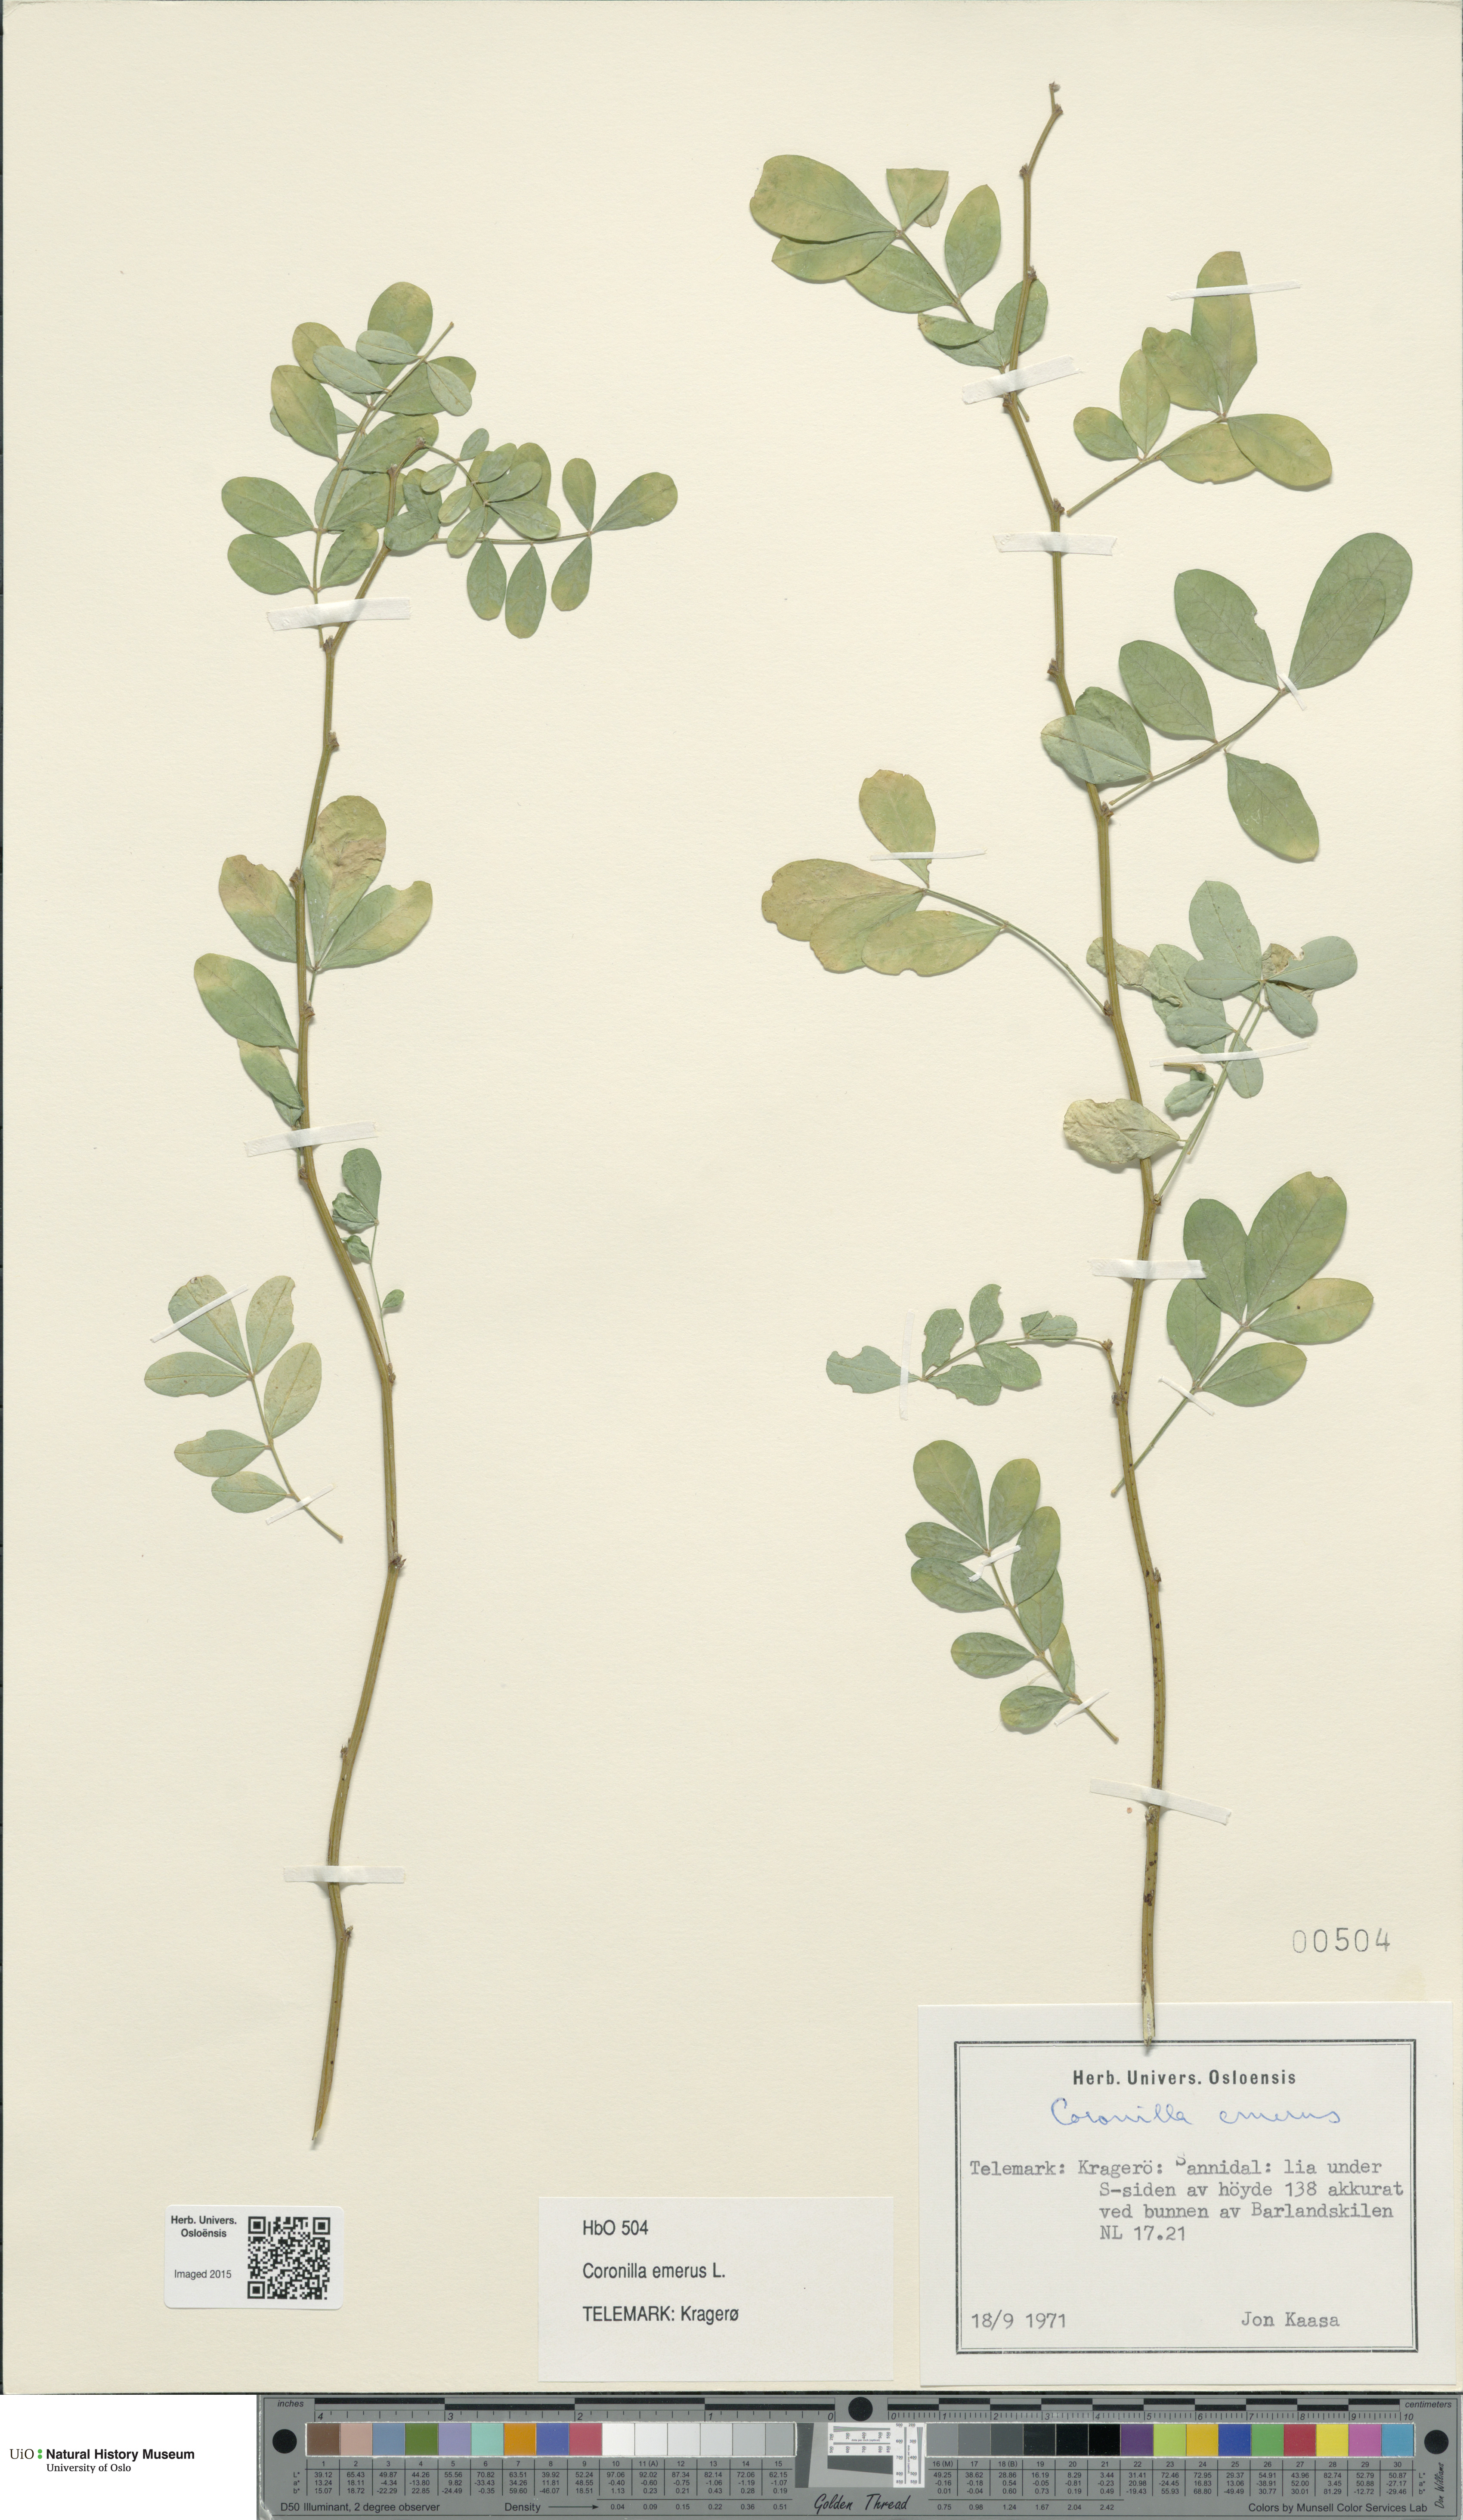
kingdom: Plantae
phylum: Tracheophyta
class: Magnoliopsida
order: Fabales
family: Fabaceae
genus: Hippocrepis
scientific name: Hippocrepis emerus
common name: Scorpion senna
